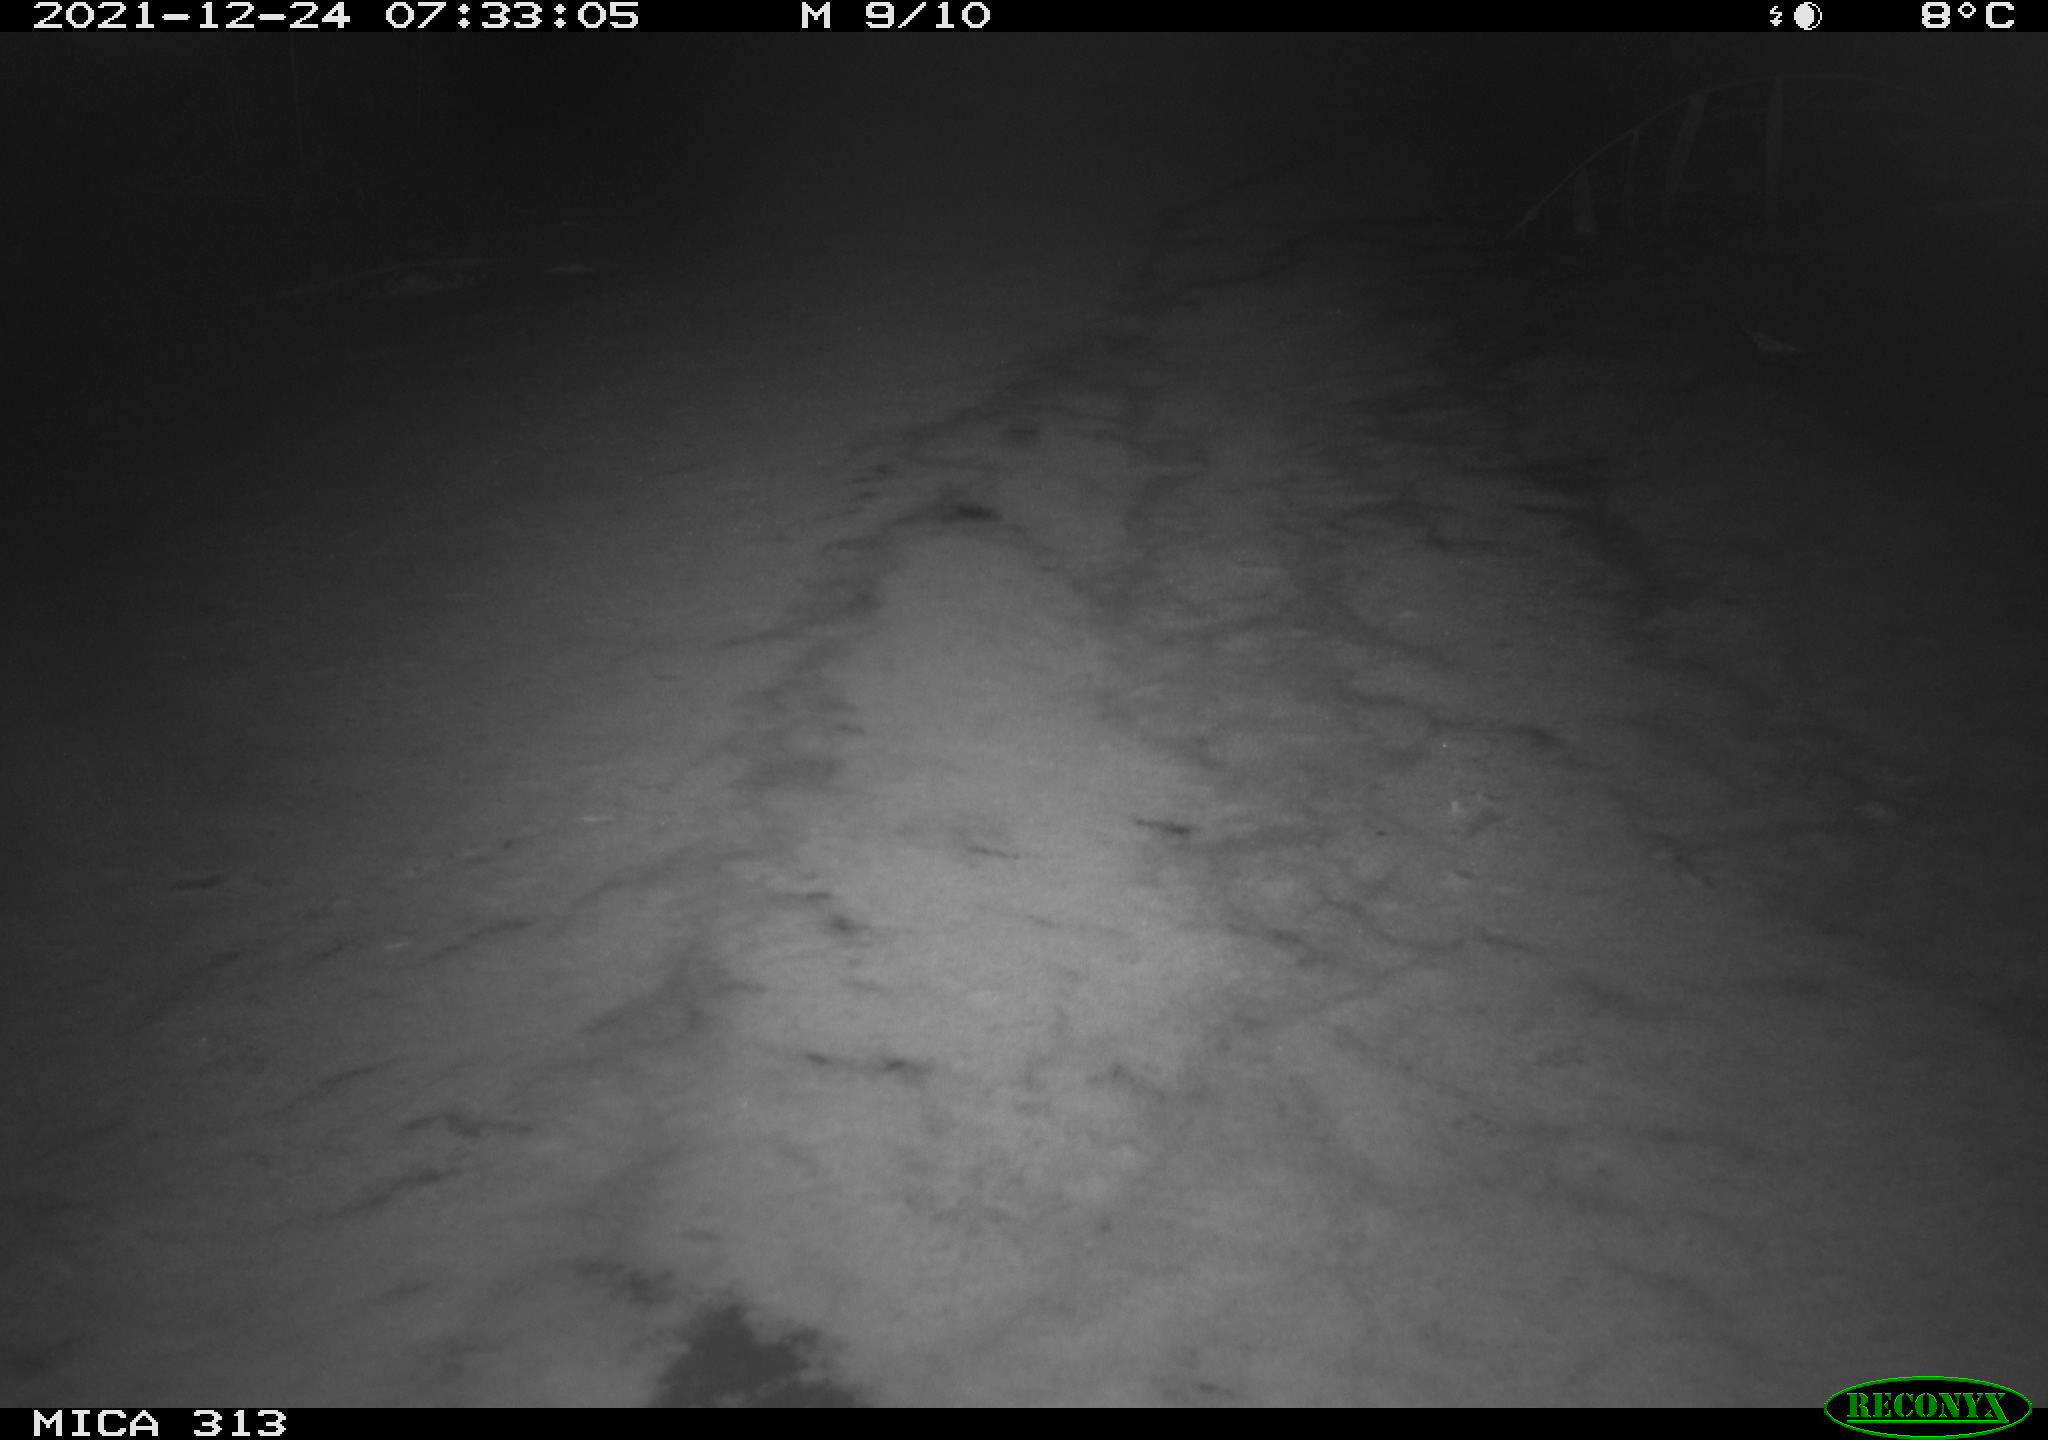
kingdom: Animalia
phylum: Chordata
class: Aves
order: Gruiformes
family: Rallidae
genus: Fulica
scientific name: Fulica atra
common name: Eurasian coot
